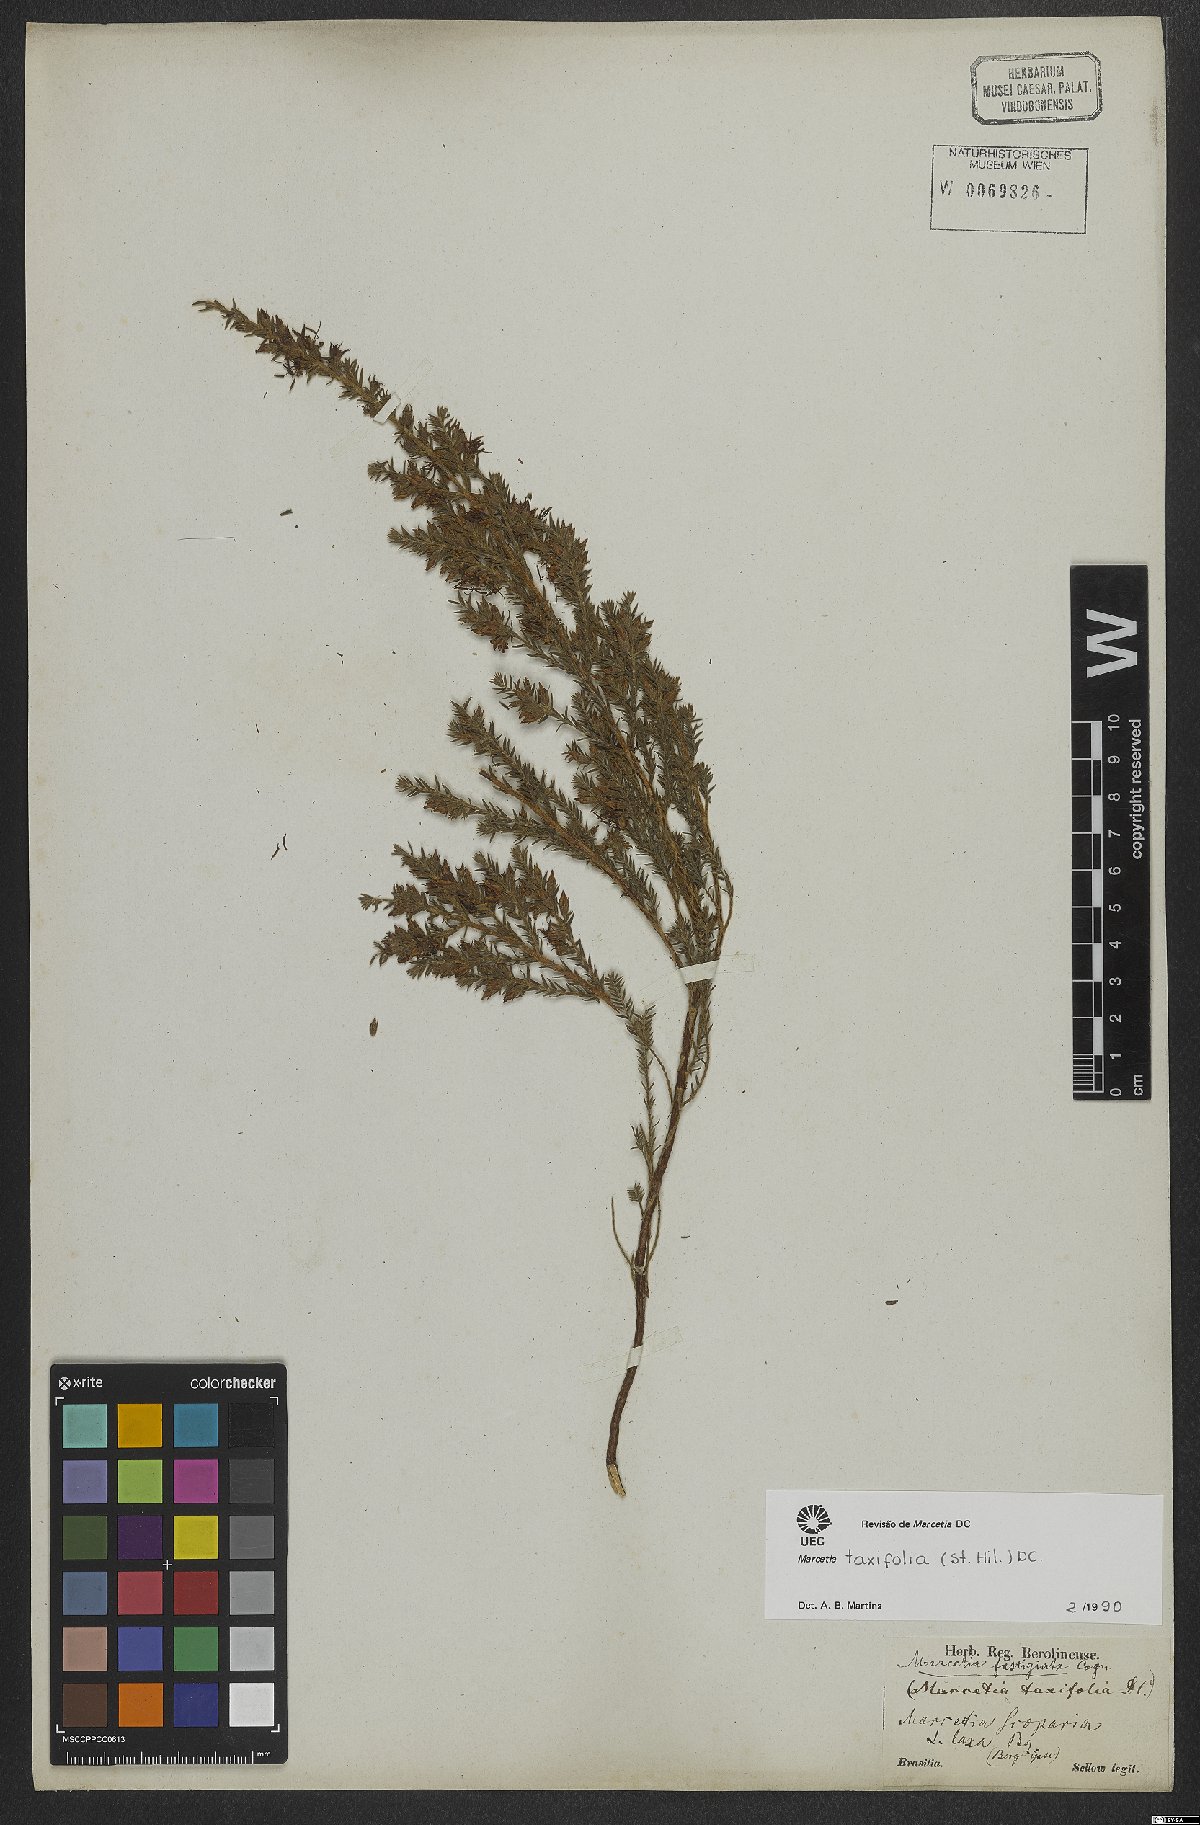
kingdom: Plantae
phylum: Tracheophyta
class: Magnoliopsida
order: Myrtales
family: Melastomataceae
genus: Marcetia
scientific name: Marcetia taxifolia
